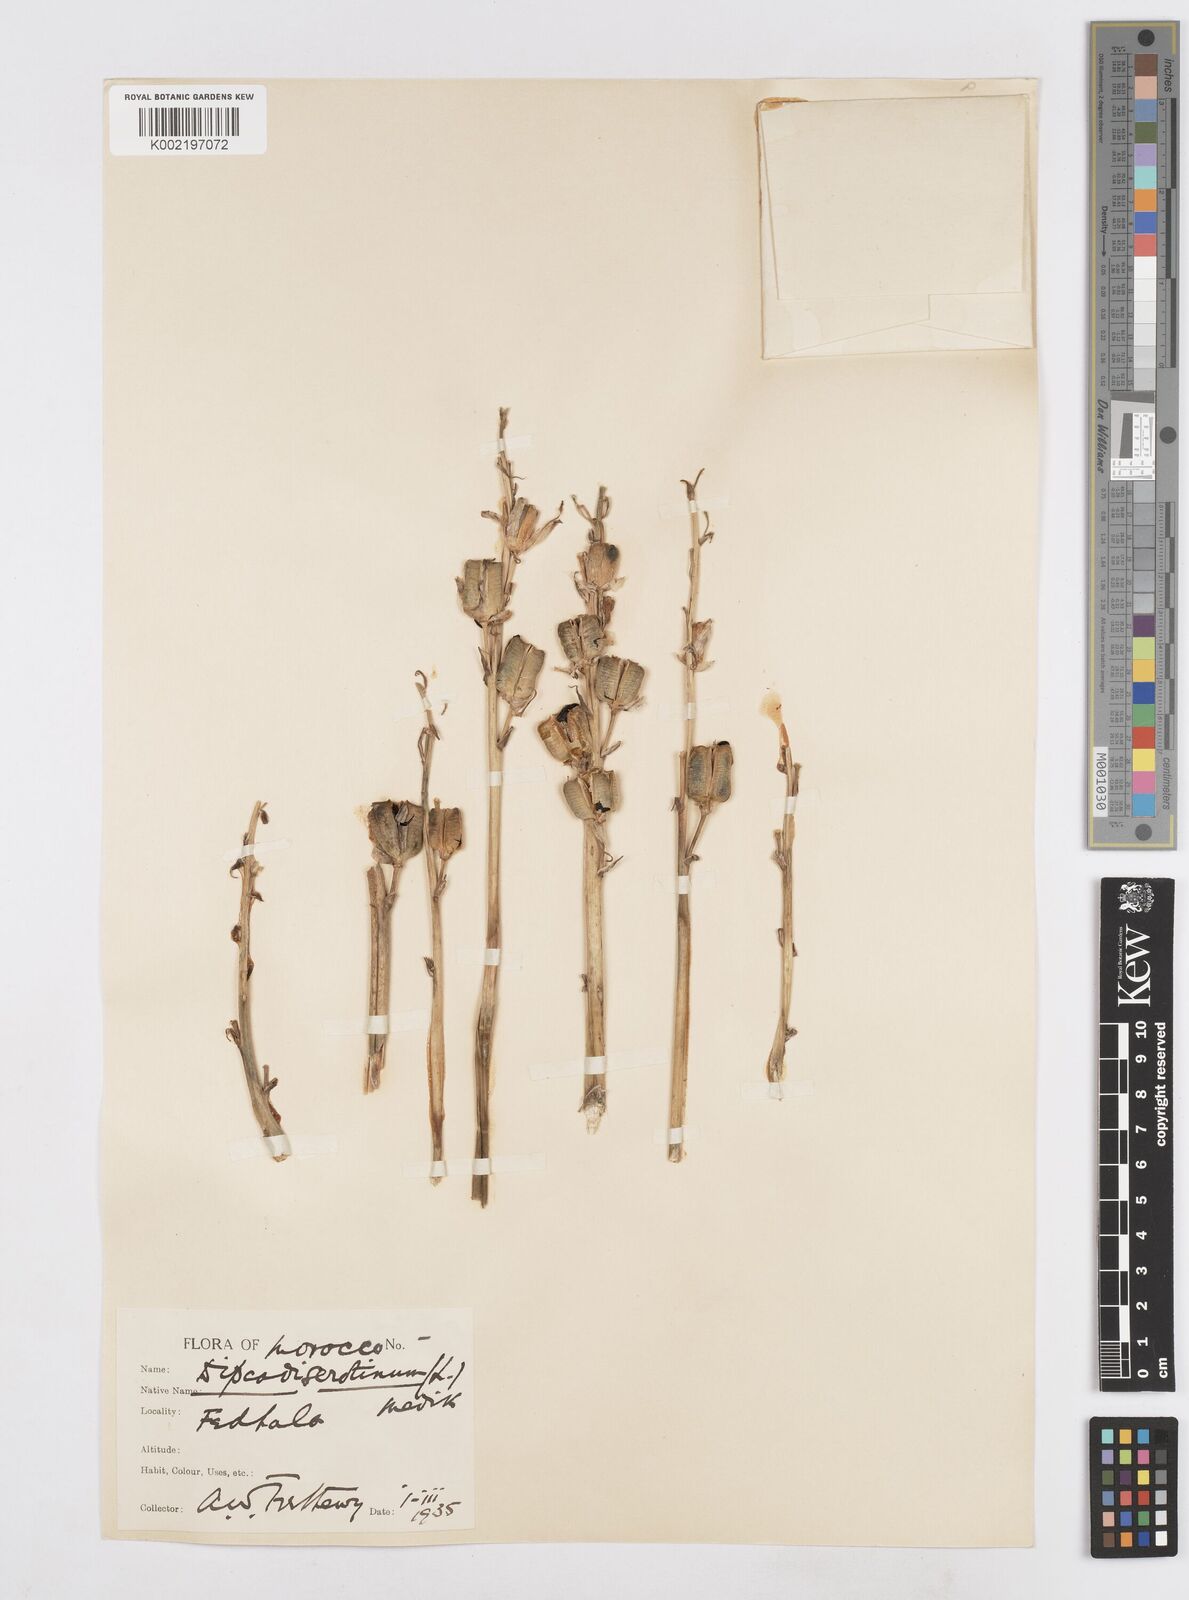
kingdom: Plantae
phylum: Tracheophyta
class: Liliopsida
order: Asparagales
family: Asparagaceae
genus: Dipcadi
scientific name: Dipcadi serotinum
